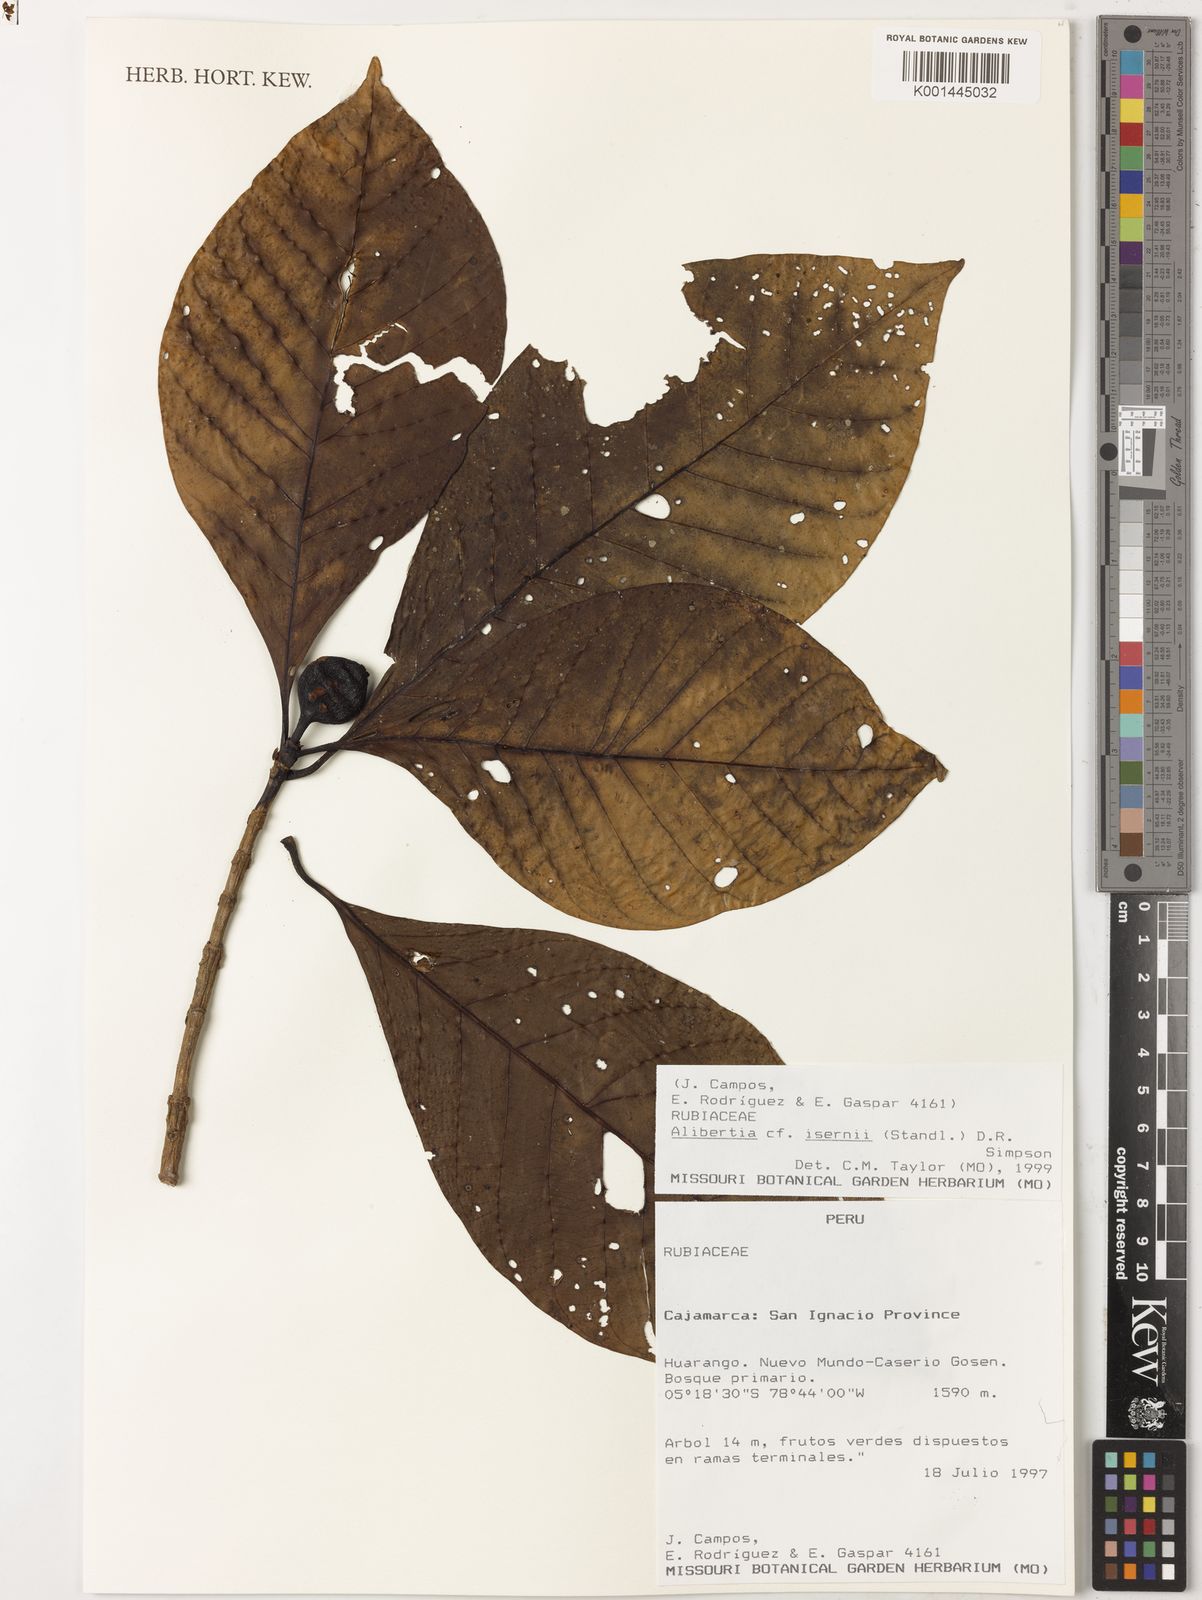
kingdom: Plantae
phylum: Tracheophyta
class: Magnoliopsida
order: Gentianales
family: Rubiaceae
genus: Agouticarpa
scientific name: Agouticarpa isernii
